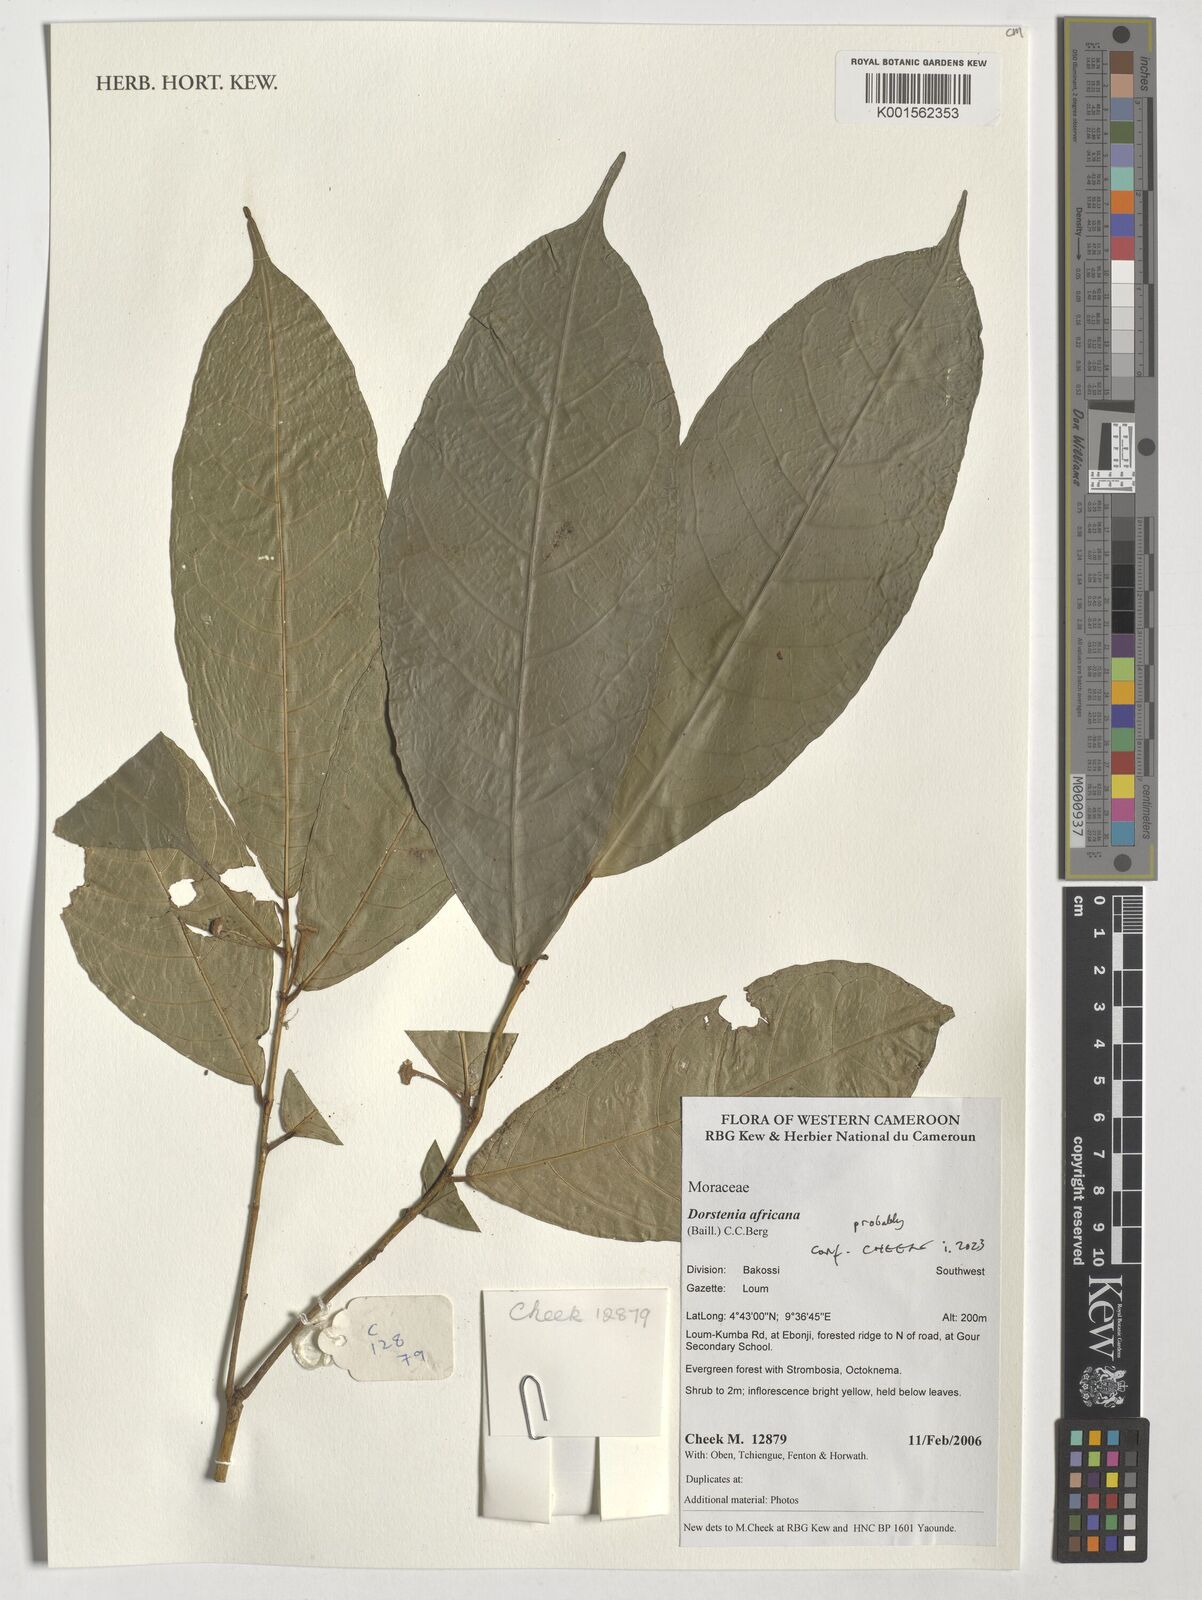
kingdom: Plantae
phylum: Tracheophyta
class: Magnoliopsida
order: Rosales
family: Moraceae
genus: Dorstenia
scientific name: Dorstenia africana
